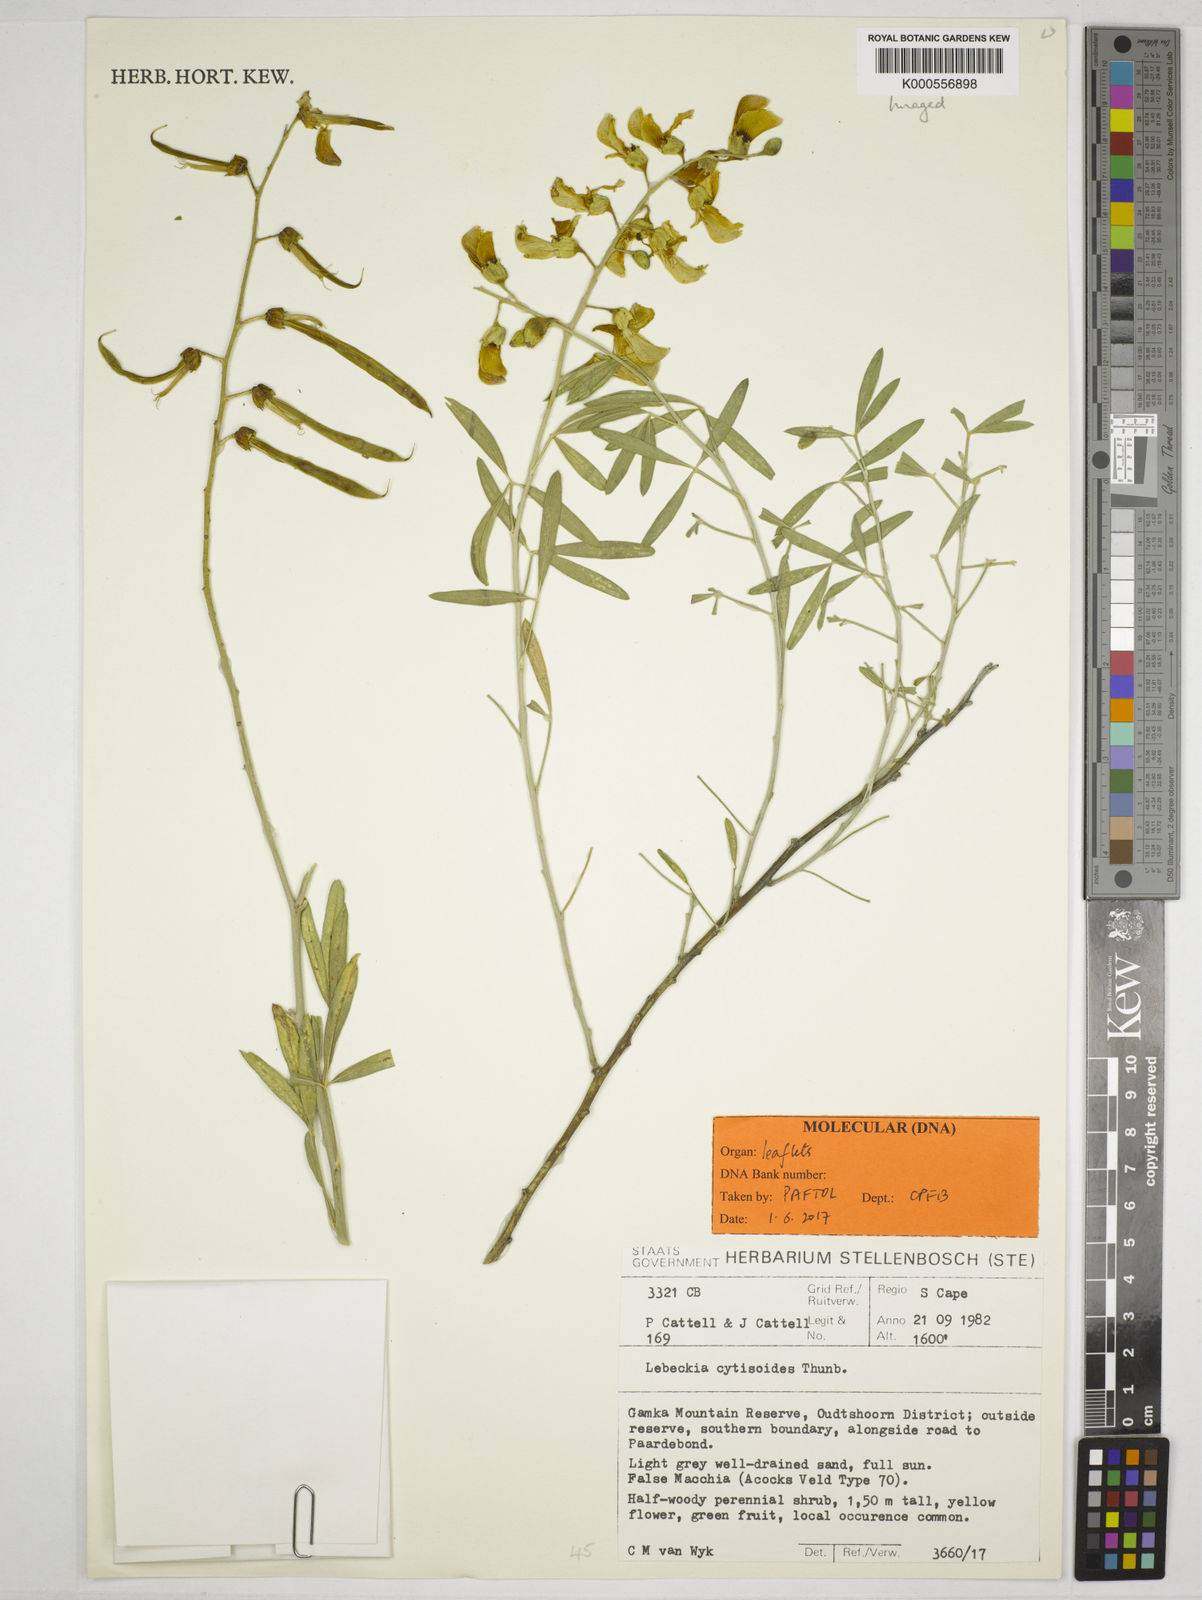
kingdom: Plantae
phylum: Tracheophyta
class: Magnoliopsida
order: Fabales
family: Fabaceae
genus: Calobota
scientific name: Calobota cytisoides
